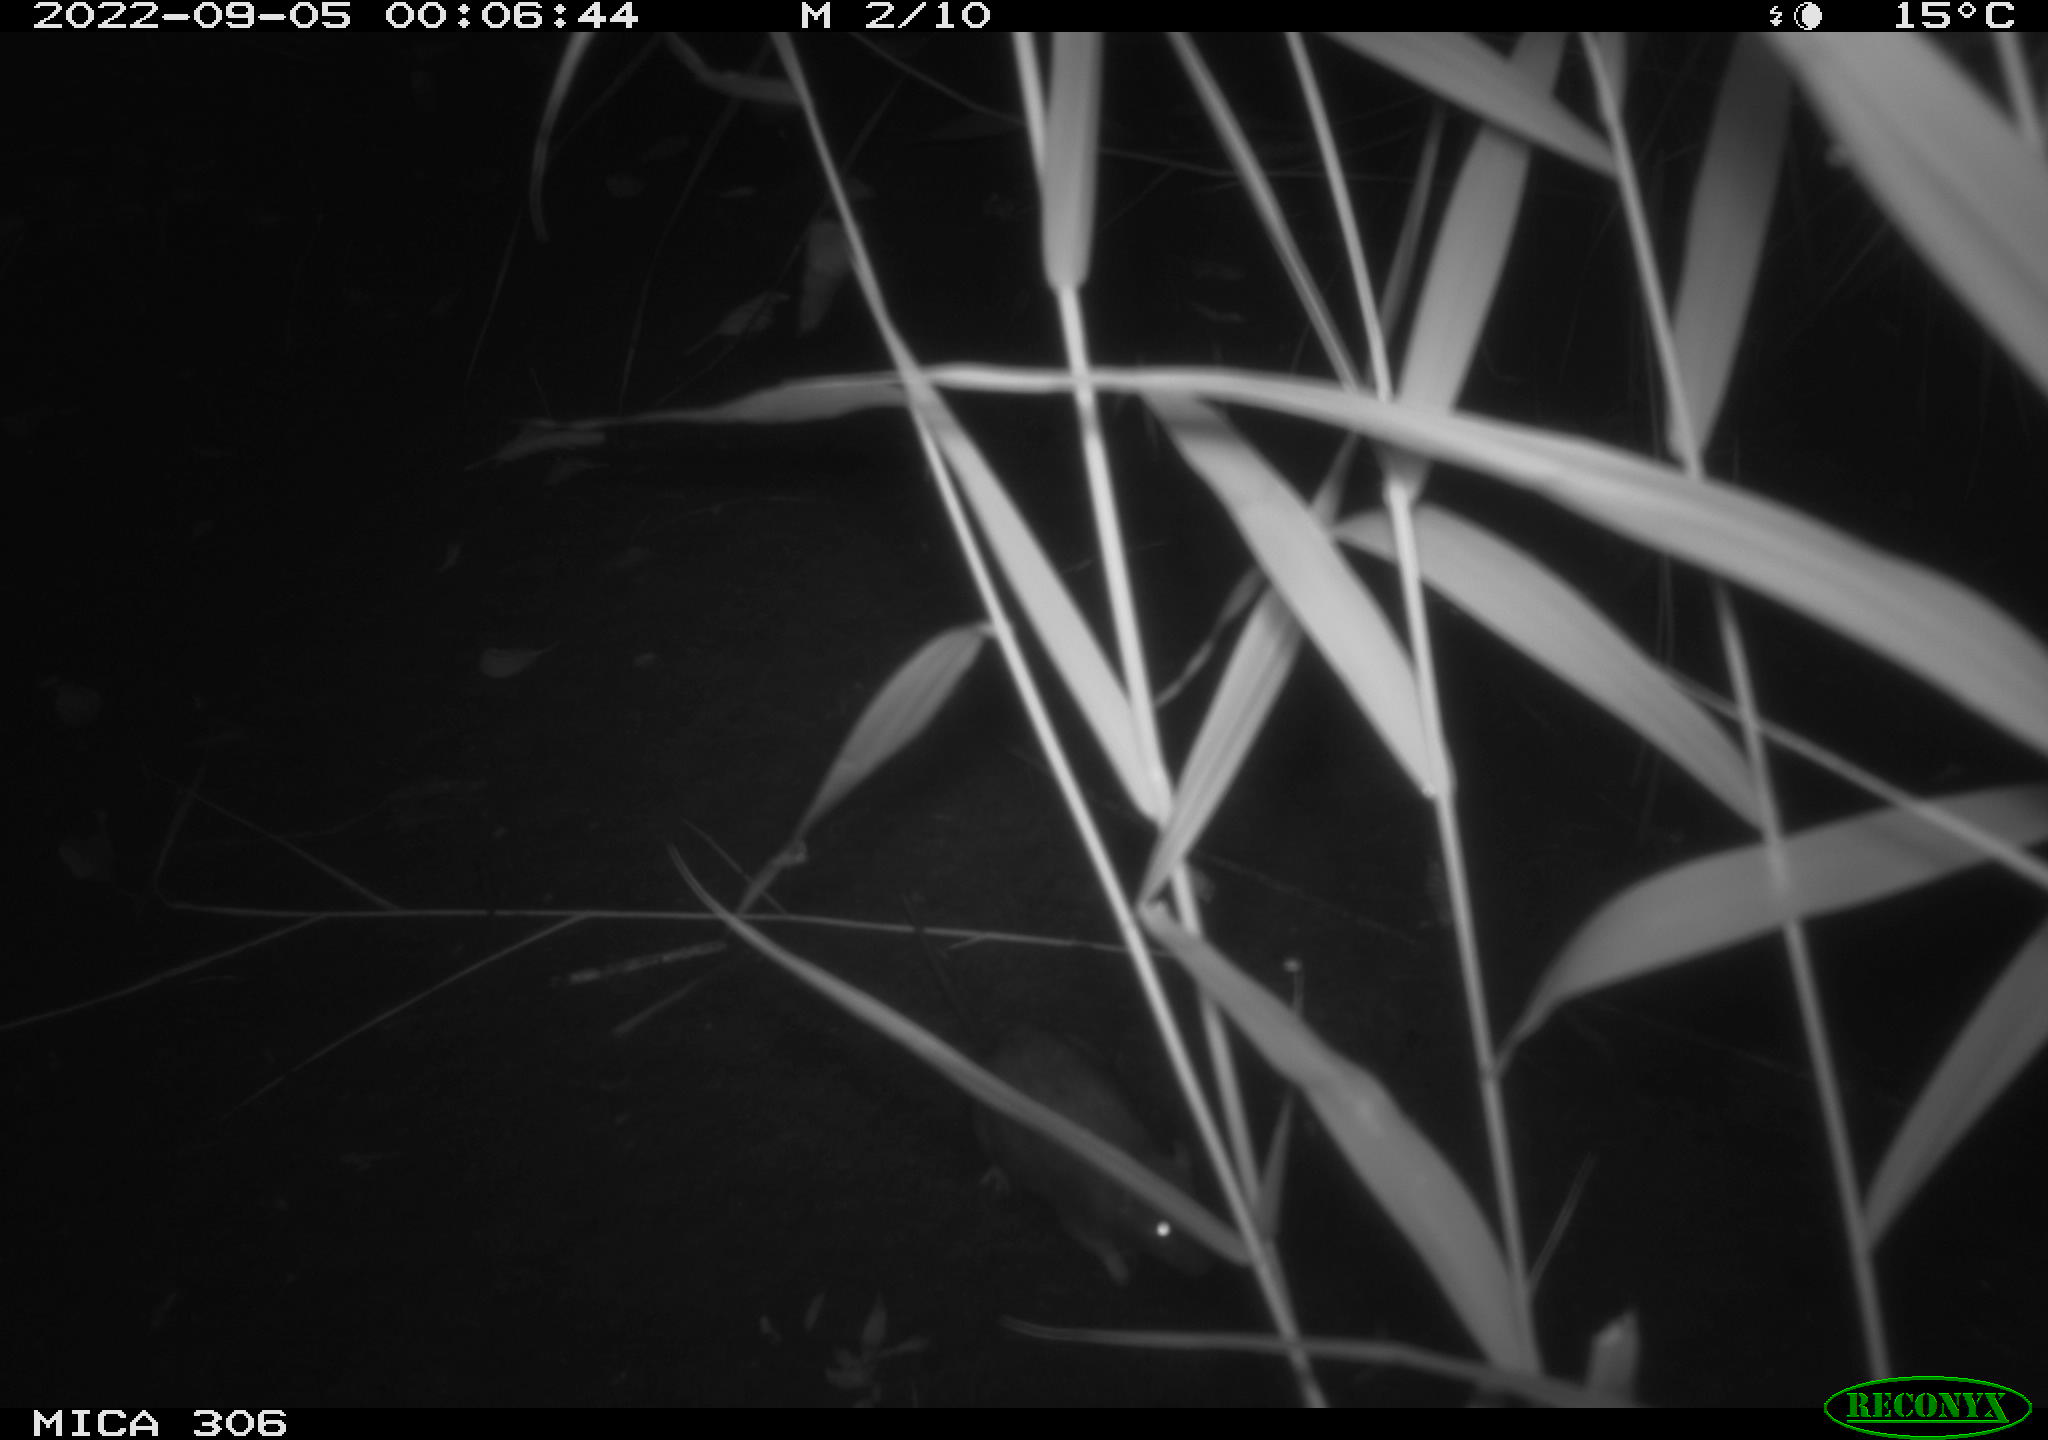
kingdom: Animalia
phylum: Chordata
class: Mammalia
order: Rodentia
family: Muridae
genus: Rattus
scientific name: Rattus norvegicus
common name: Brown rat
